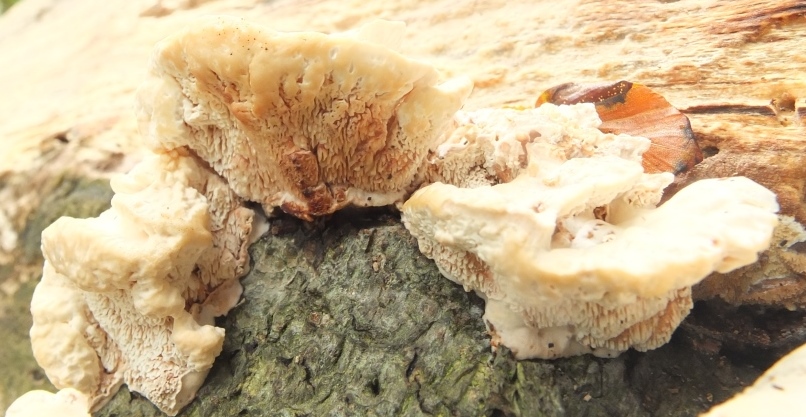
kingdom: Fungi
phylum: Basidiomycota
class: Agaricomycetes
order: Polyporales
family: Podoscyphaceae
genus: Abortiporus
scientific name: Abortiporus biennis
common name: rødmende pjalteporesvamp
